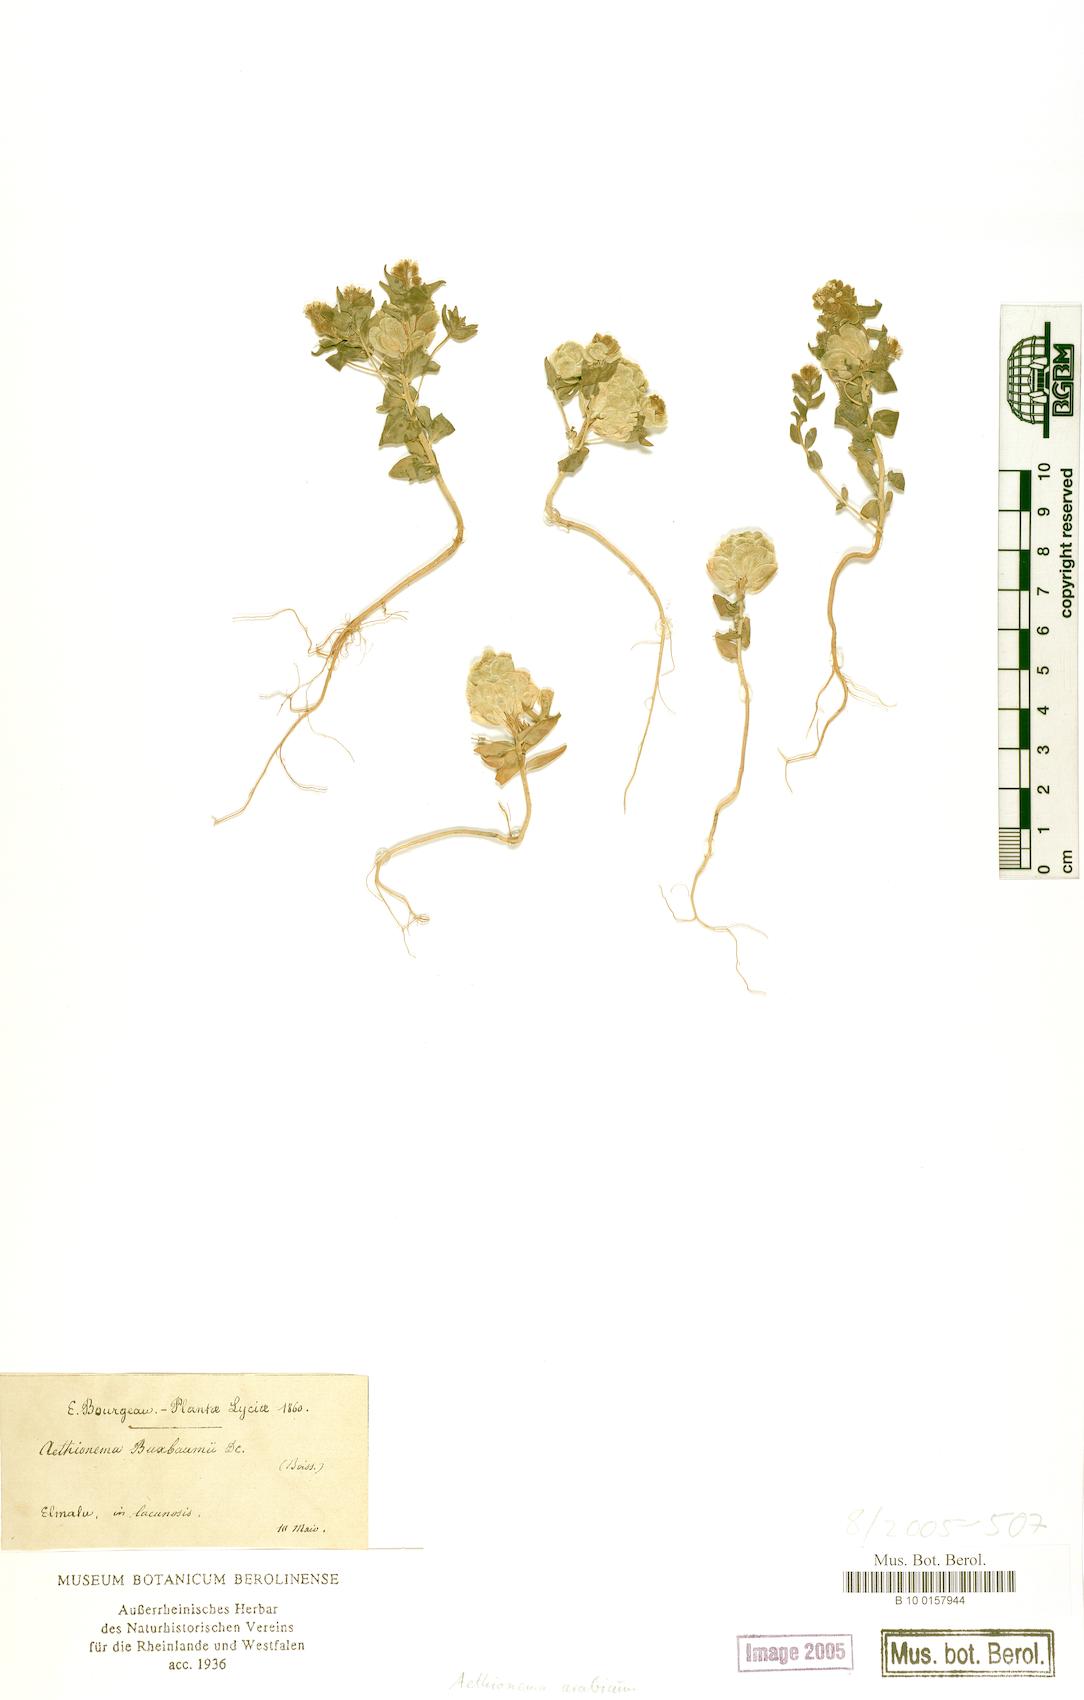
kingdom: Plantae
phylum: Tracheophyta
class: Magnoliopsida
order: Brassicales
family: Brassicaceae
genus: Aethionema
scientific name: Aethionema arabicum
